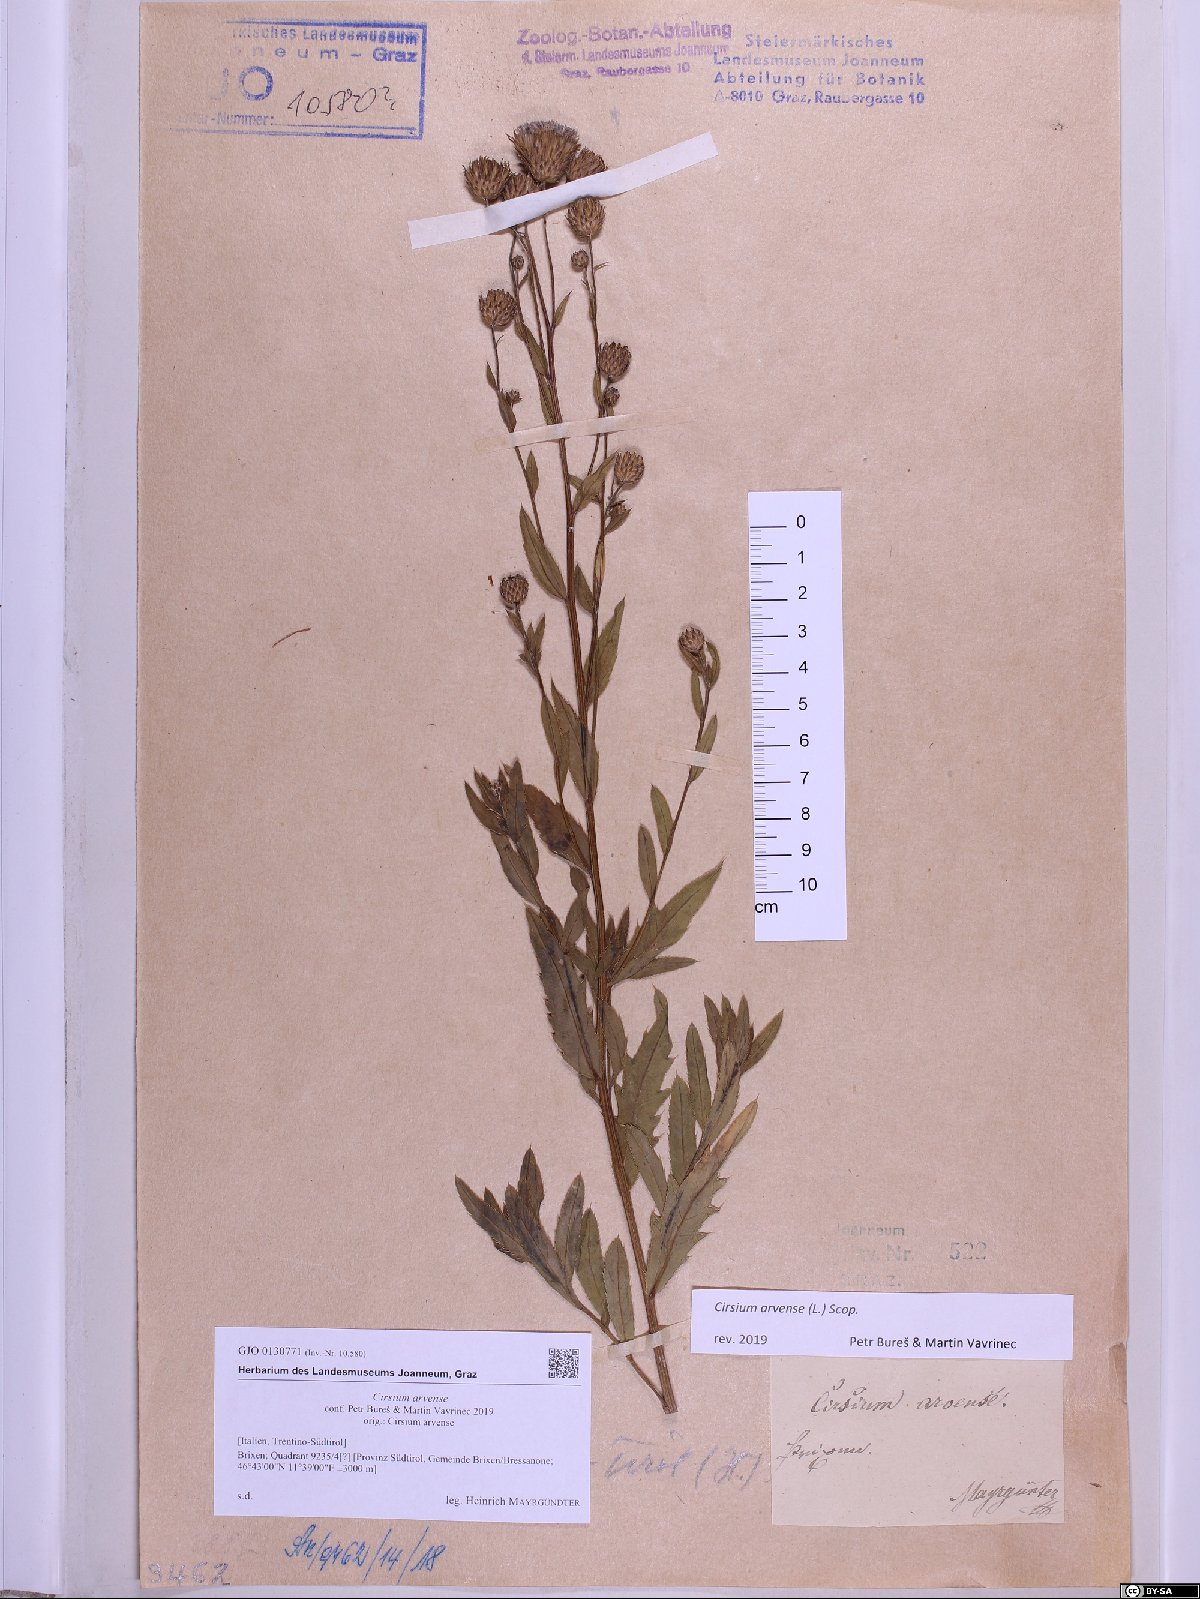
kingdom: Plantae
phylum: Tracheophyta
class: Magnoliopsida
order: Asterales
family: Asteraceae
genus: Cirsium
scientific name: Cirsium arvense
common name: Creeping thistle
